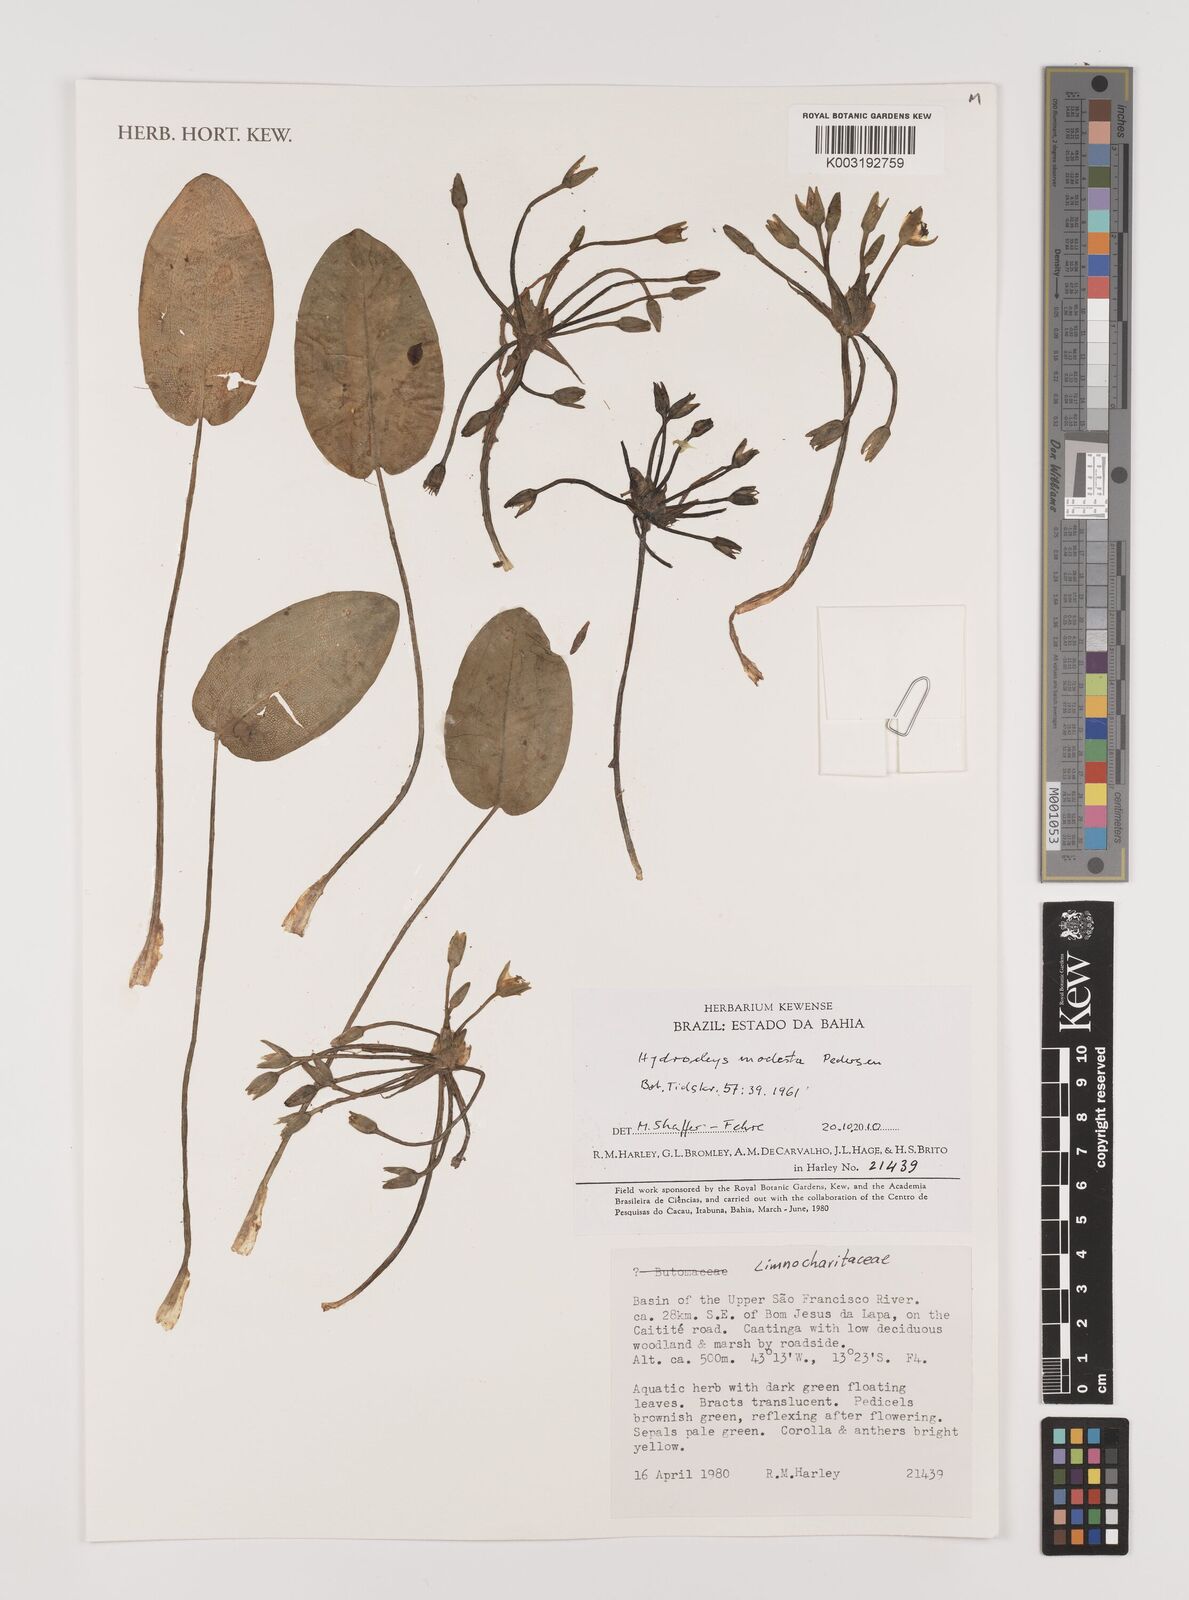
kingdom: Plantae
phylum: Tracheophyta
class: Liliopsida
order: Alismatales
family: Alismataceae
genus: Hydrocleys
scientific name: Hydrocleys modesta
